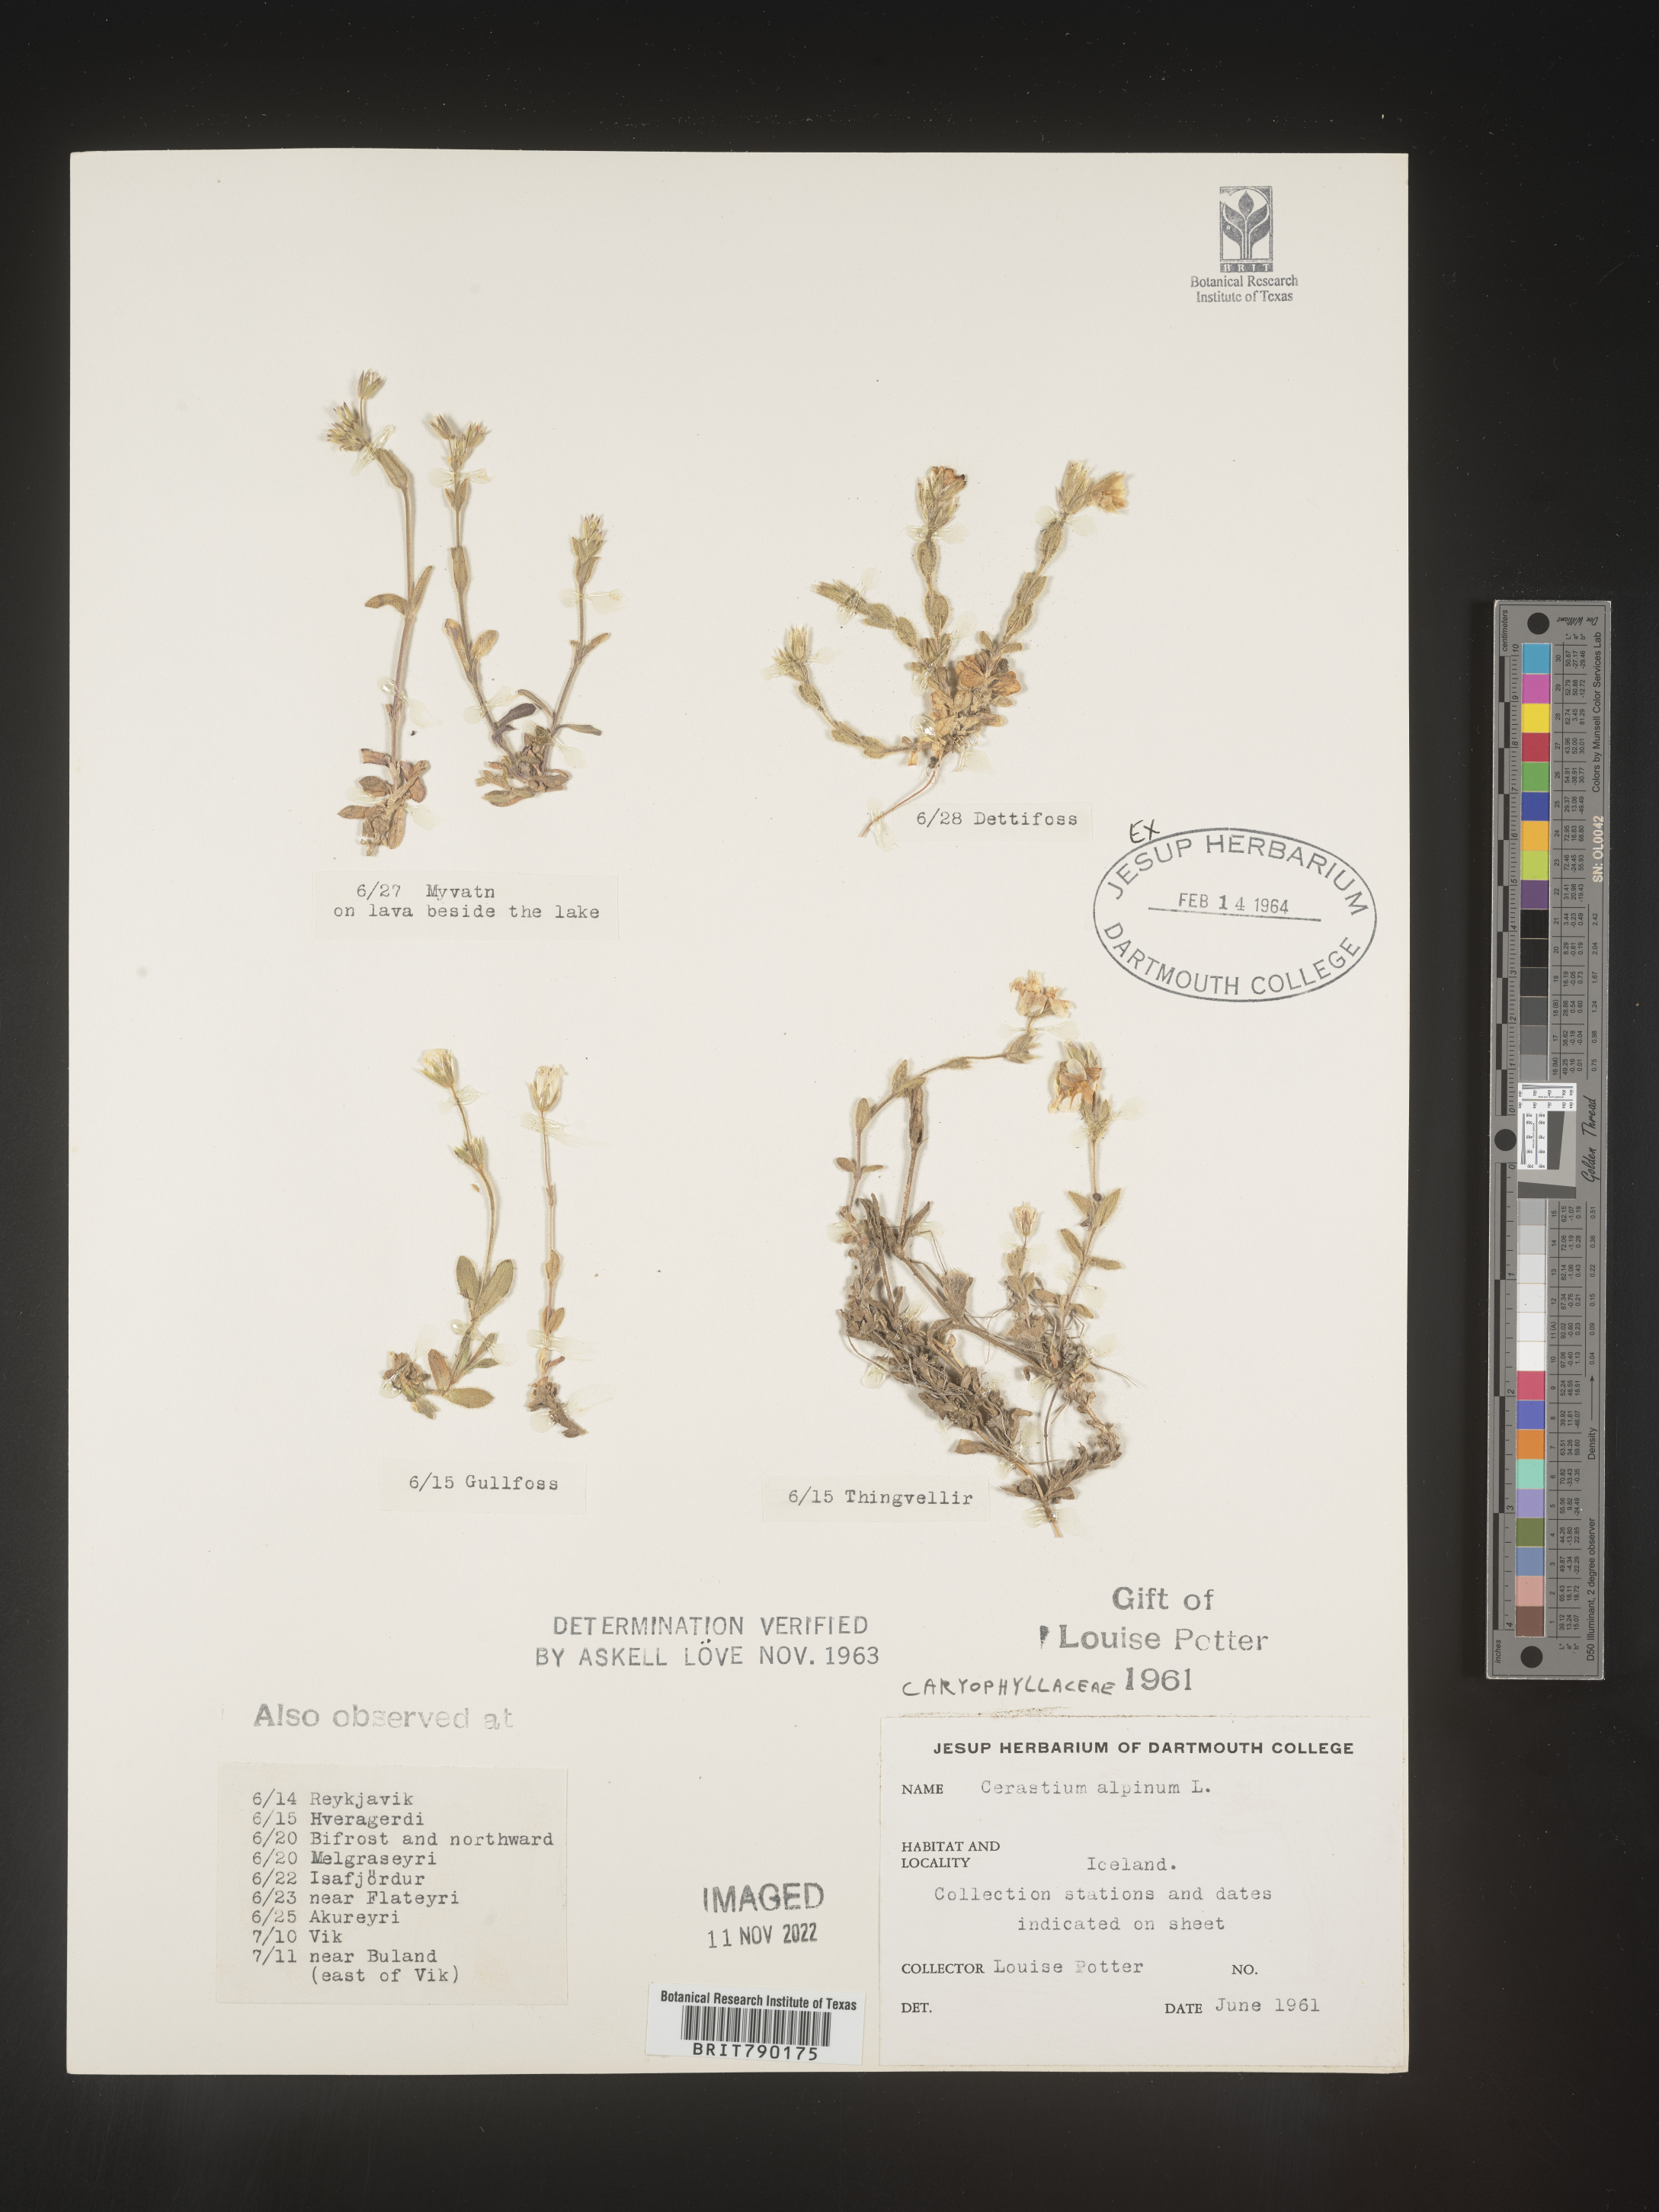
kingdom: Plantae
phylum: Tracheophyta
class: Magnoliopsida
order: Caryophyllales
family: Caryophyllaceae
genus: Cerastium
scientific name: Cerastium
